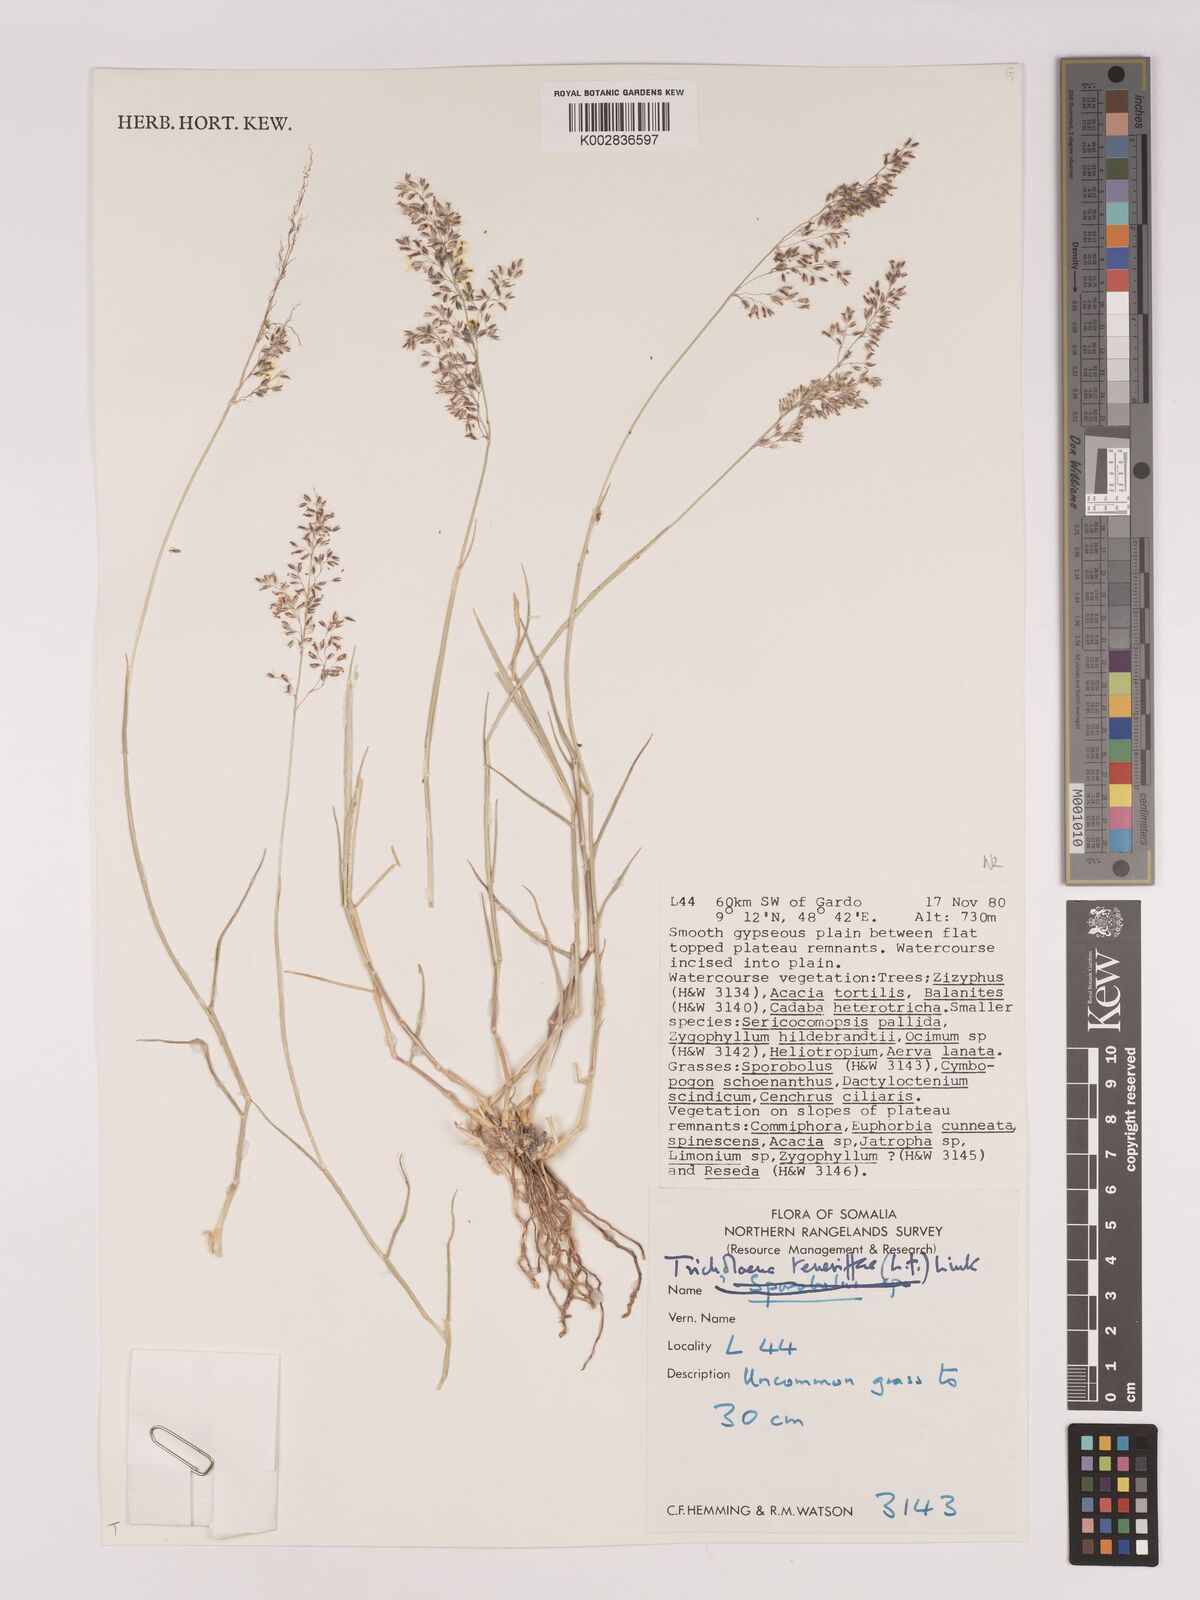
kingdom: Plantae
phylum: Tracheophyta
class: Liliopsida
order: Poales
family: Poaceae
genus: Tricholaena
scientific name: Tricholaena teneriffae
